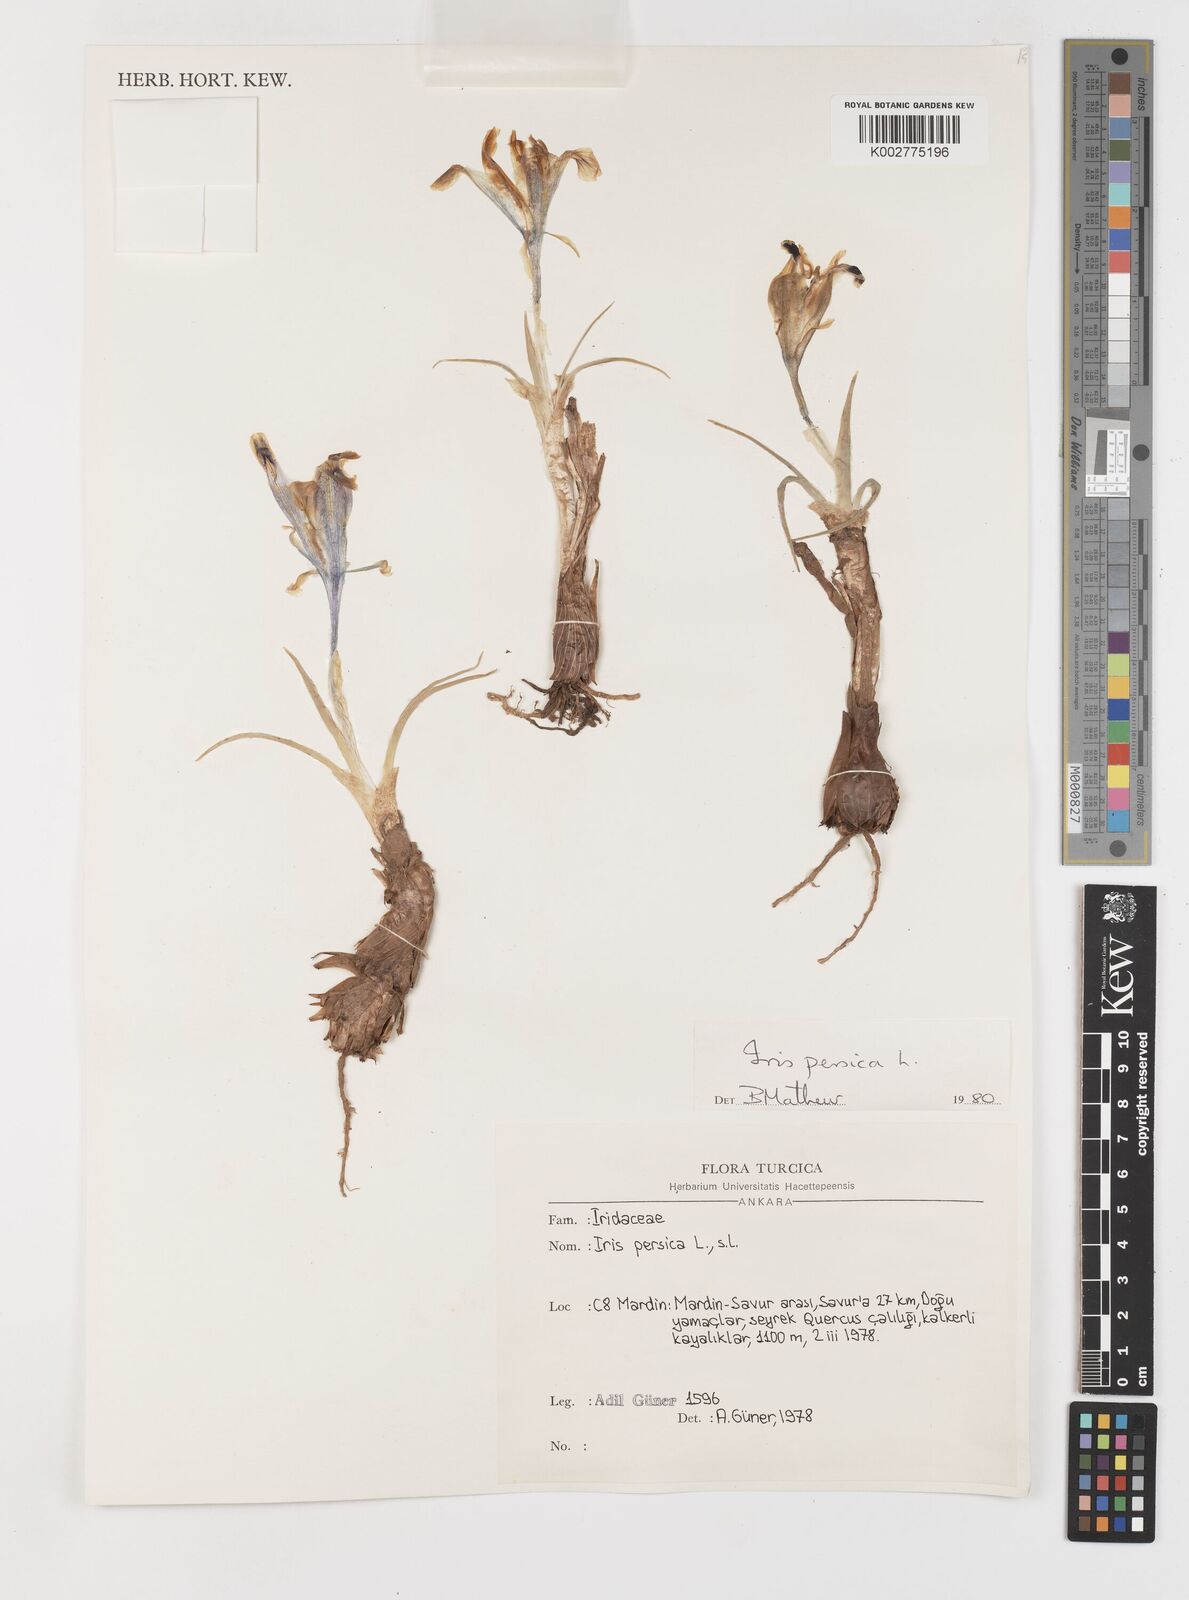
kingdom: Plantae
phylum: Tracheophyta
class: Liliopsida
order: Asparagales
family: Iridaceae
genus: Iris
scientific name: Iris persica
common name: Persian iris
